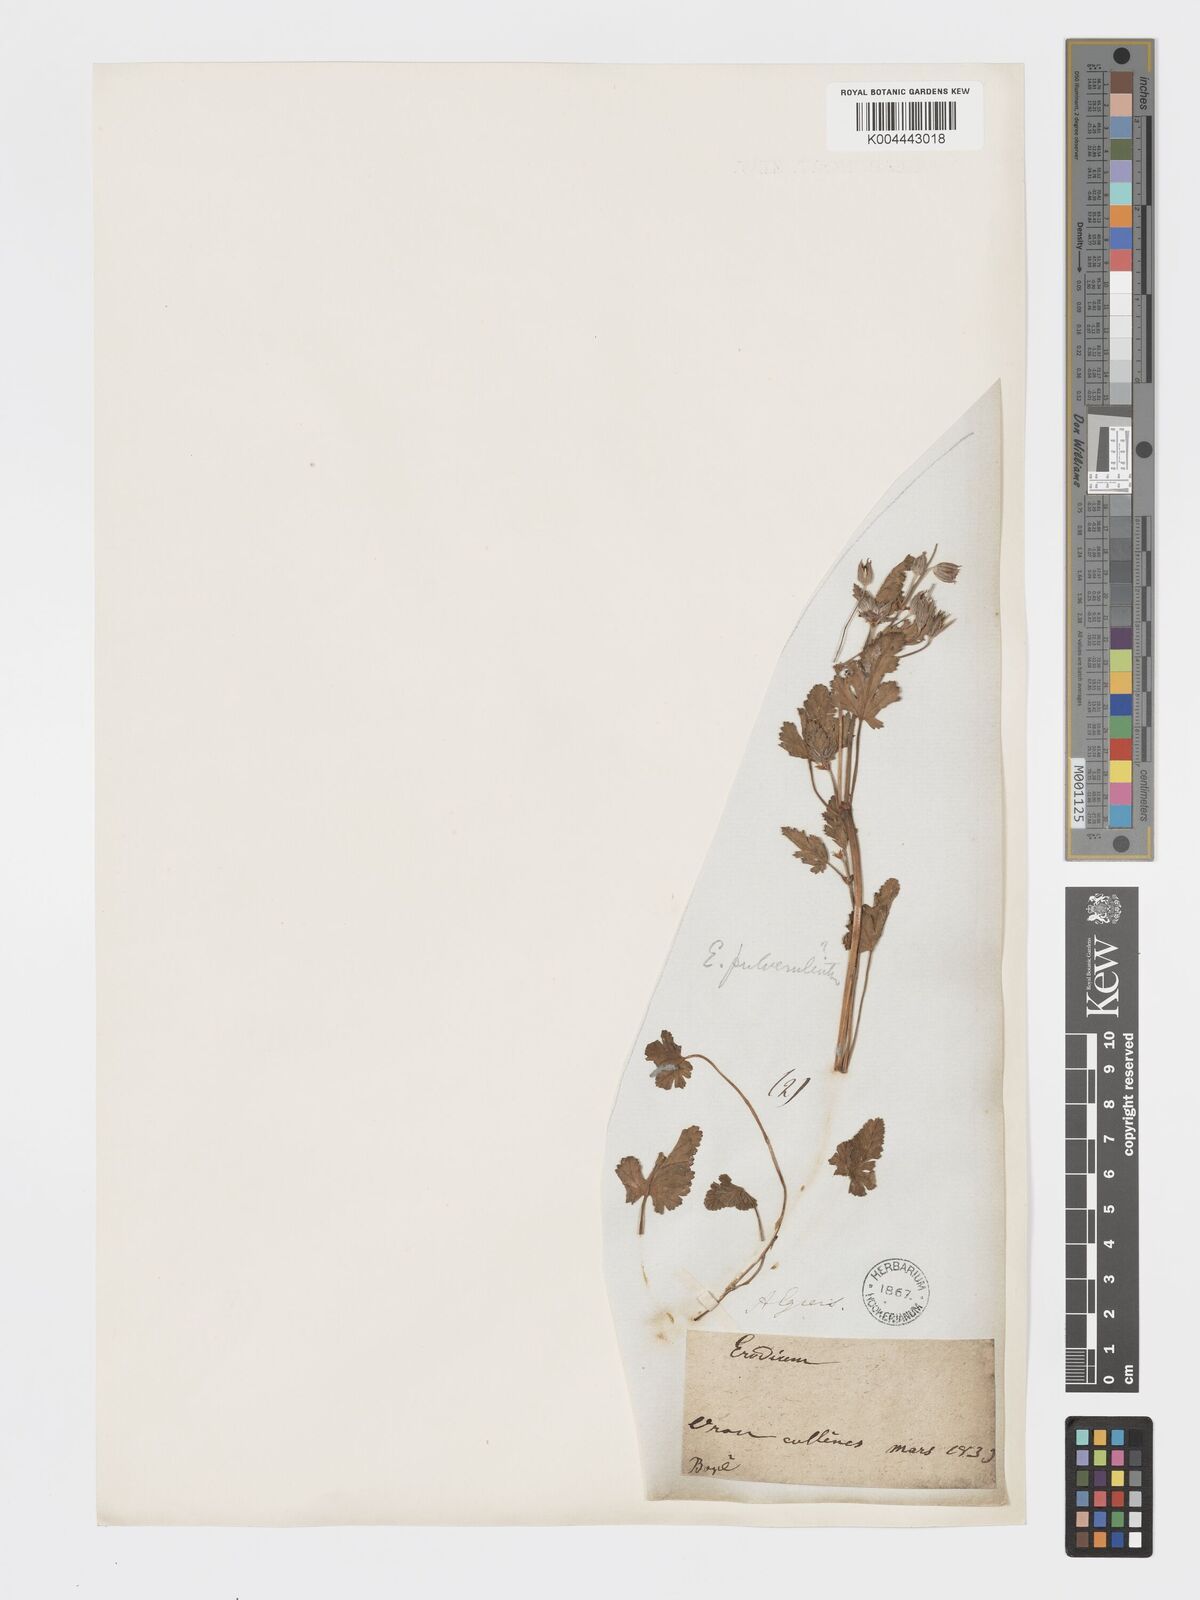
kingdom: Plantae
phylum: Tracheophyta
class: Magnoliopsida
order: Geraniales
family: Geraniaceae
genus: Erodium
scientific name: Erodium guttatum
